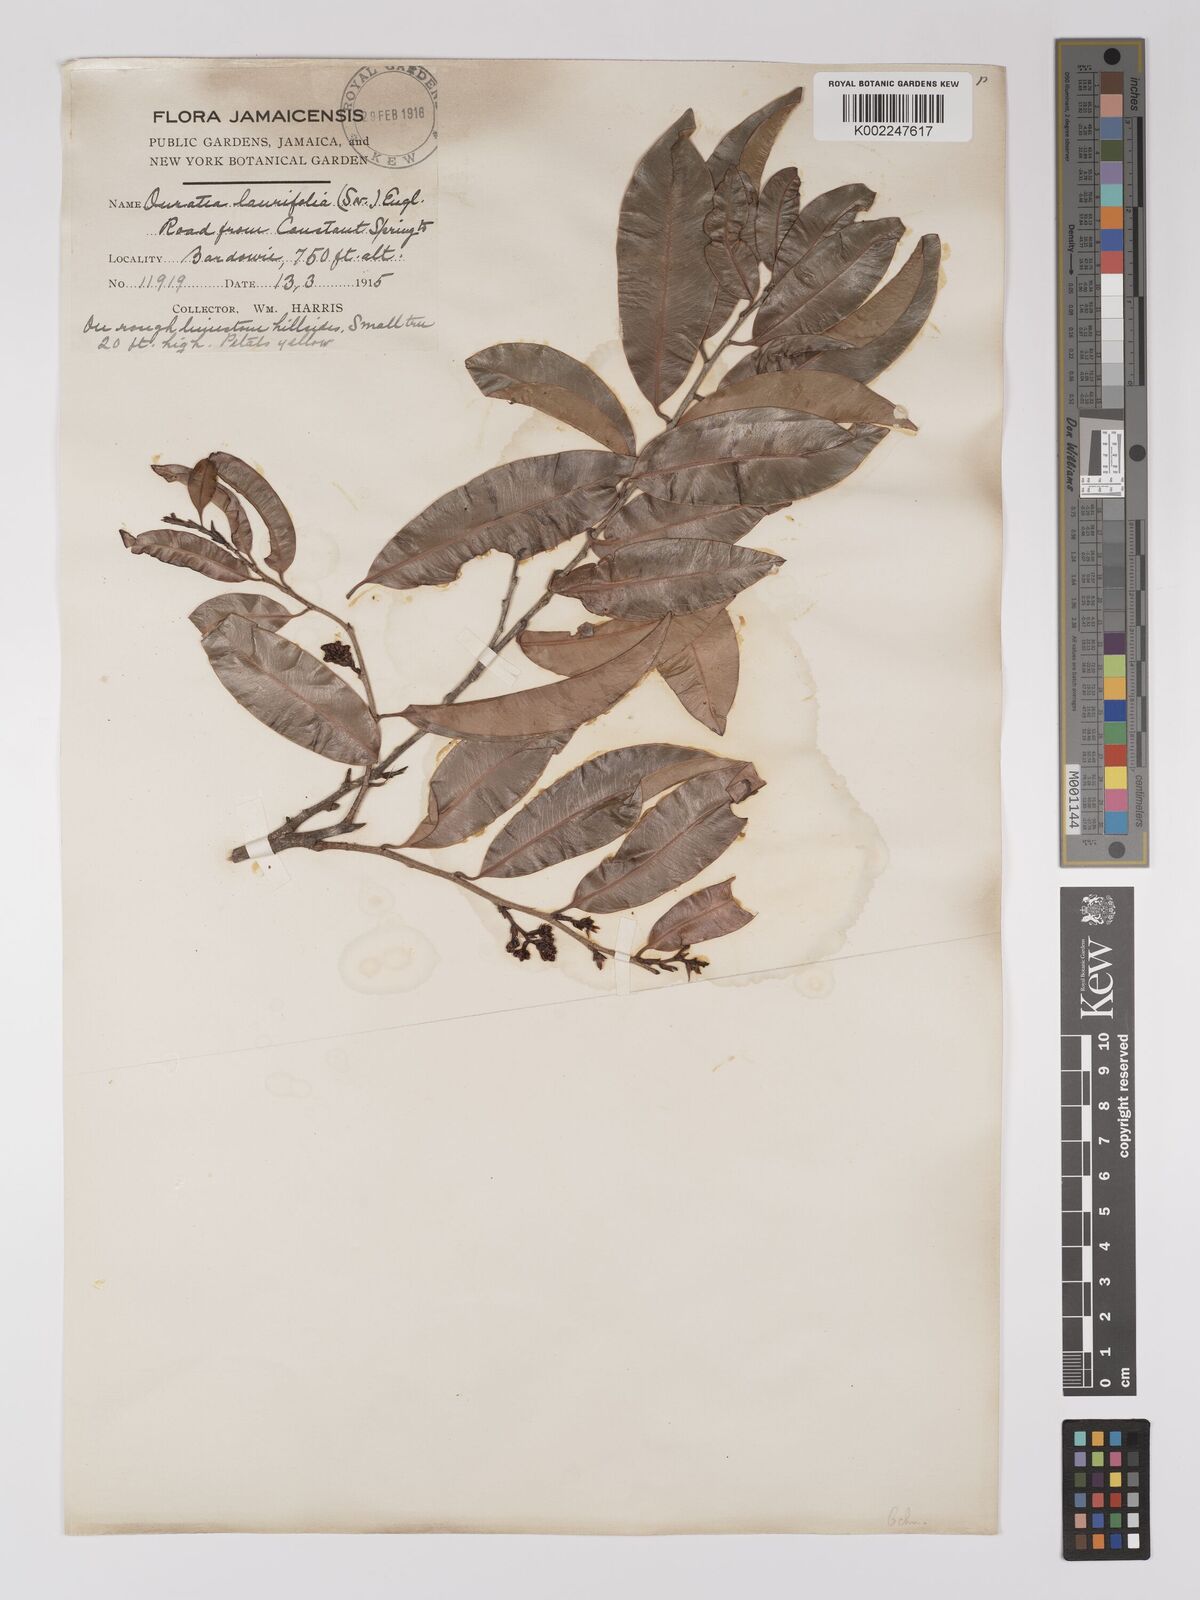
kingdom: Plantae
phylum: Tracheophyta
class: Magnoliopsida
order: Malpighiales
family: Ochnaceae
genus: Ouratea
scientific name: Ouratea laurifolia
